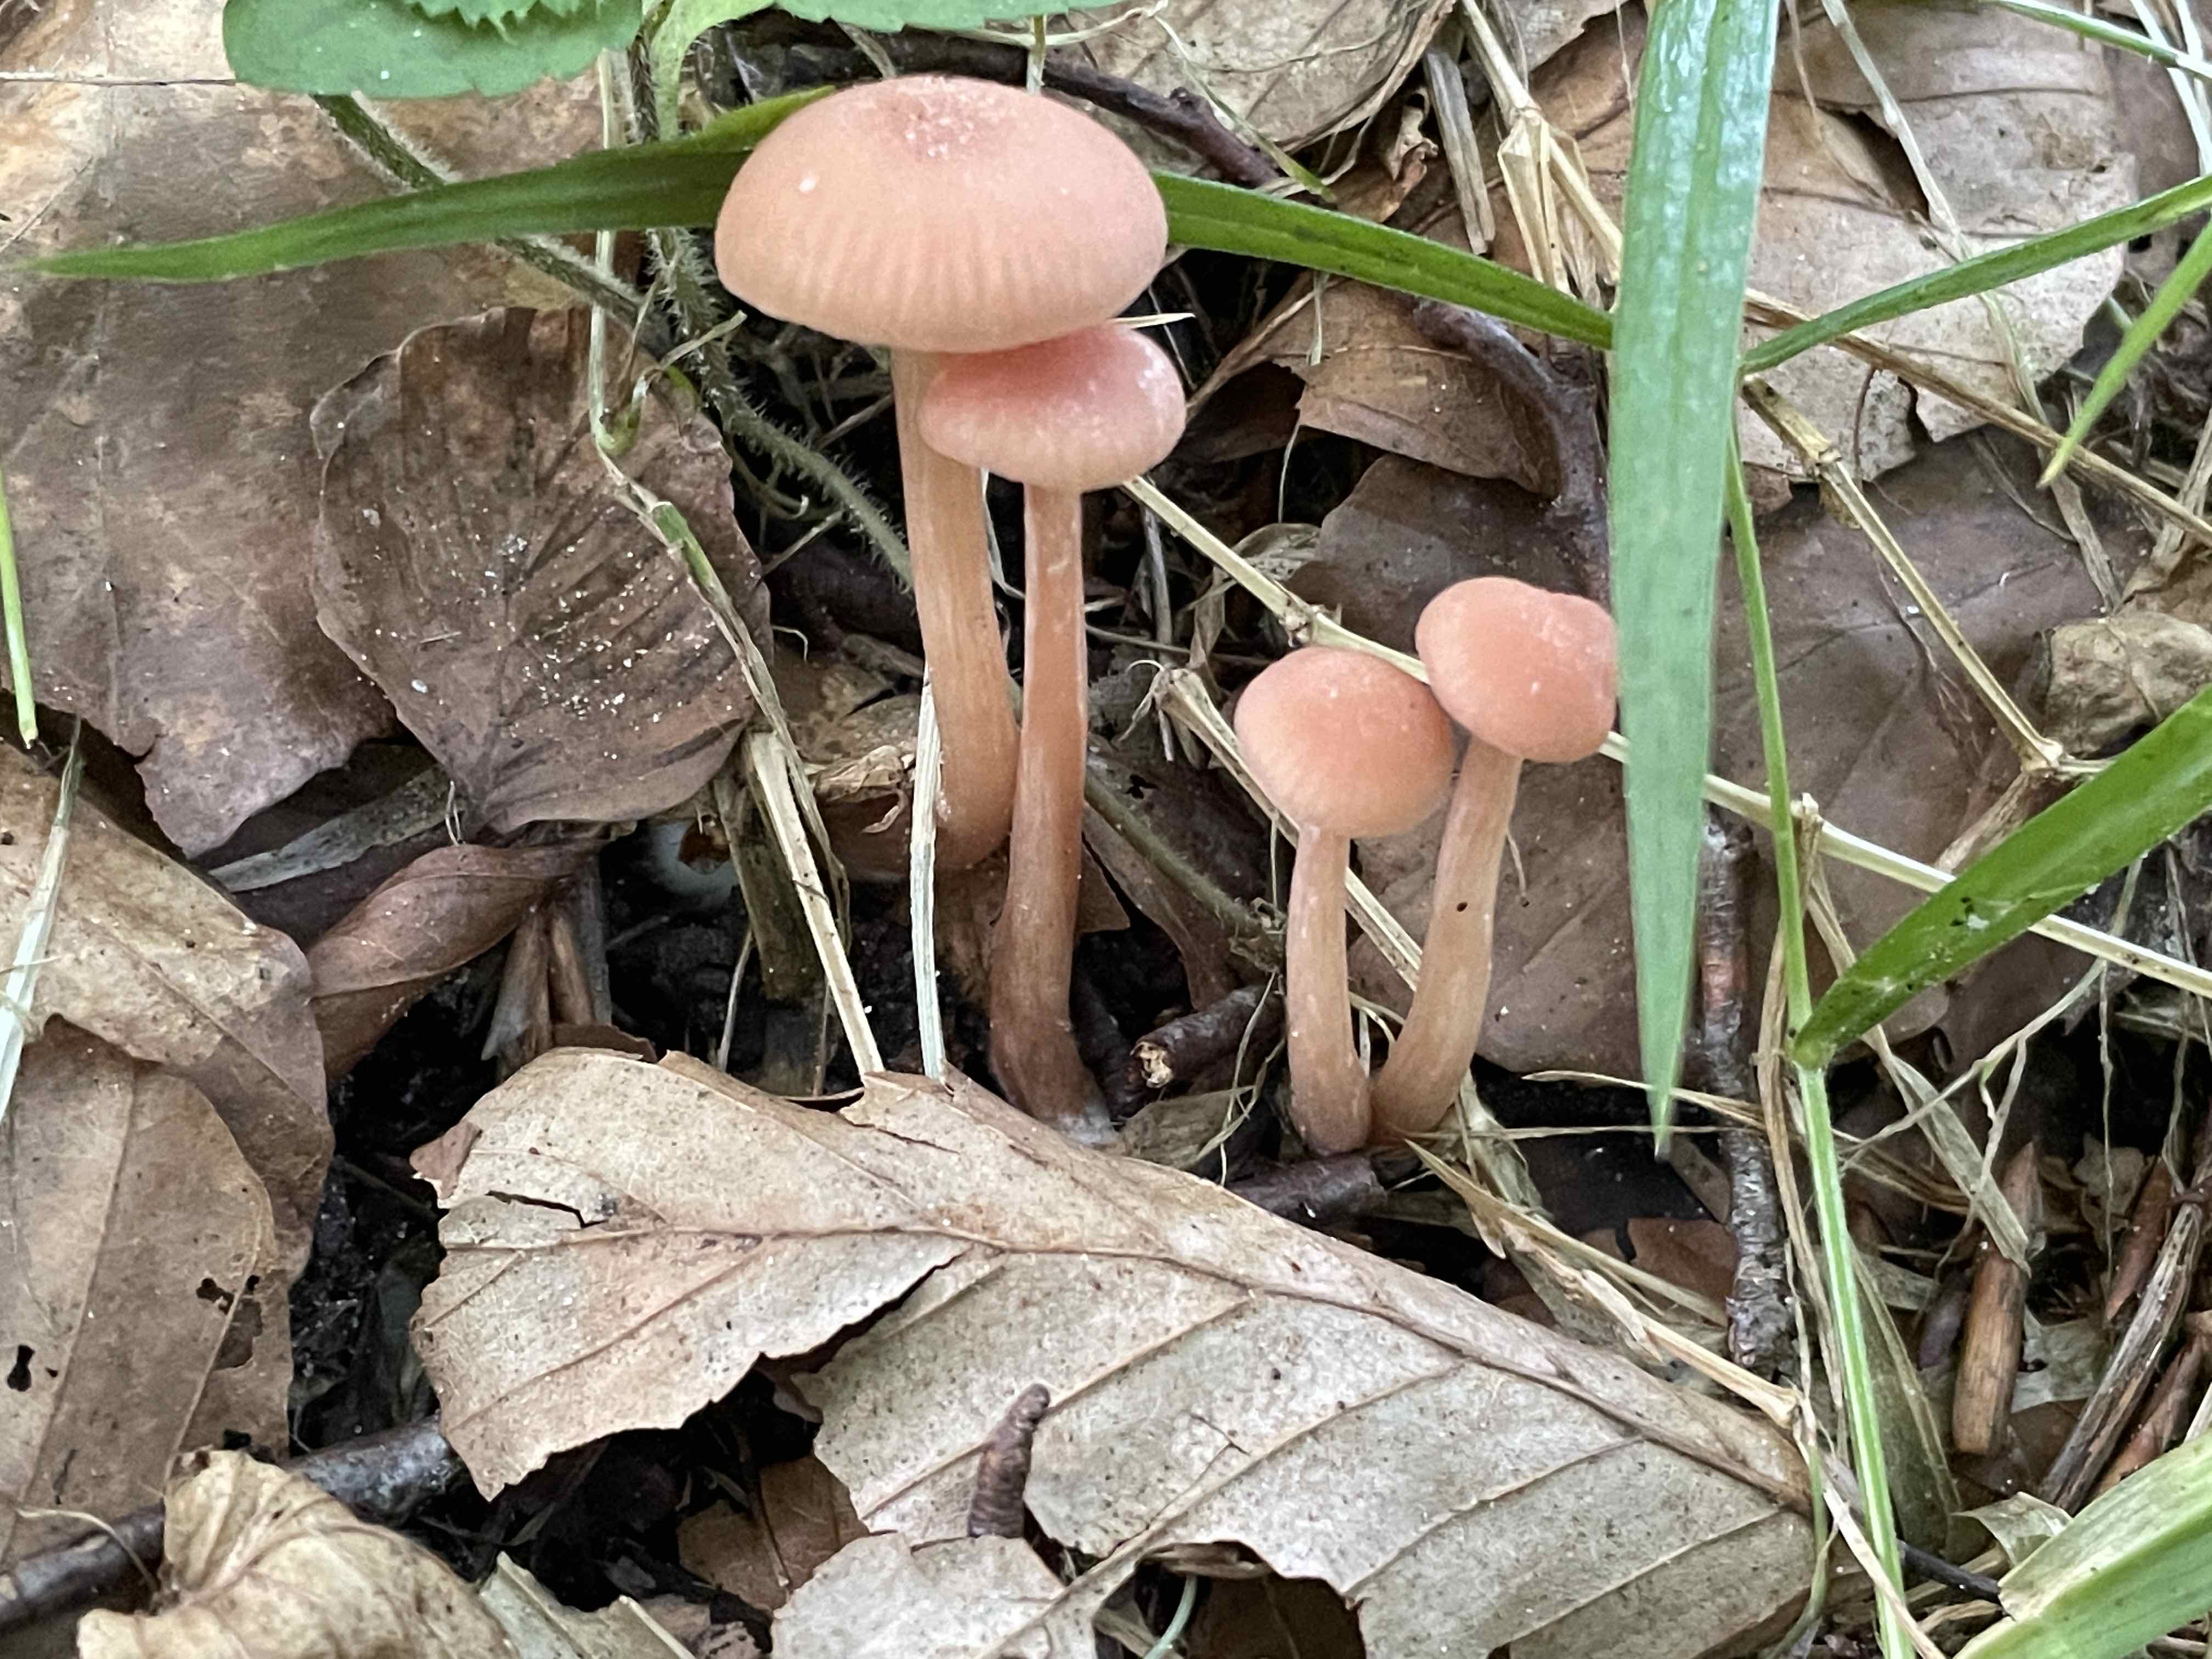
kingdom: Fungi
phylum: Basidiomycota
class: Agaricomycetes
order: Agaricales
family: Hydnangiaceae
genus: Laccaria
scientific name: Laccaria laccata
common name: rød ametysthat
